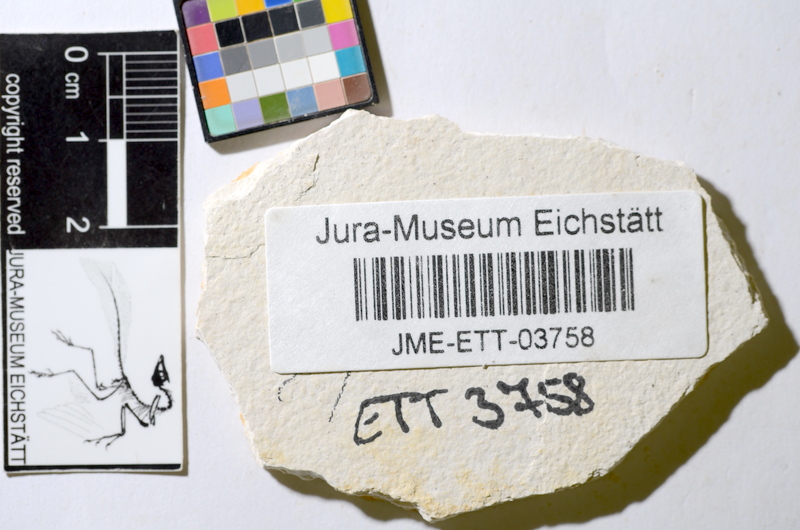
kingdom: Animalia
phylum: Chordata
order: Salmoniformes
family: Orthogonikleithridae
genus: Orthogonikleithrus
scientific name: Orthogonikleithrus hoelli
